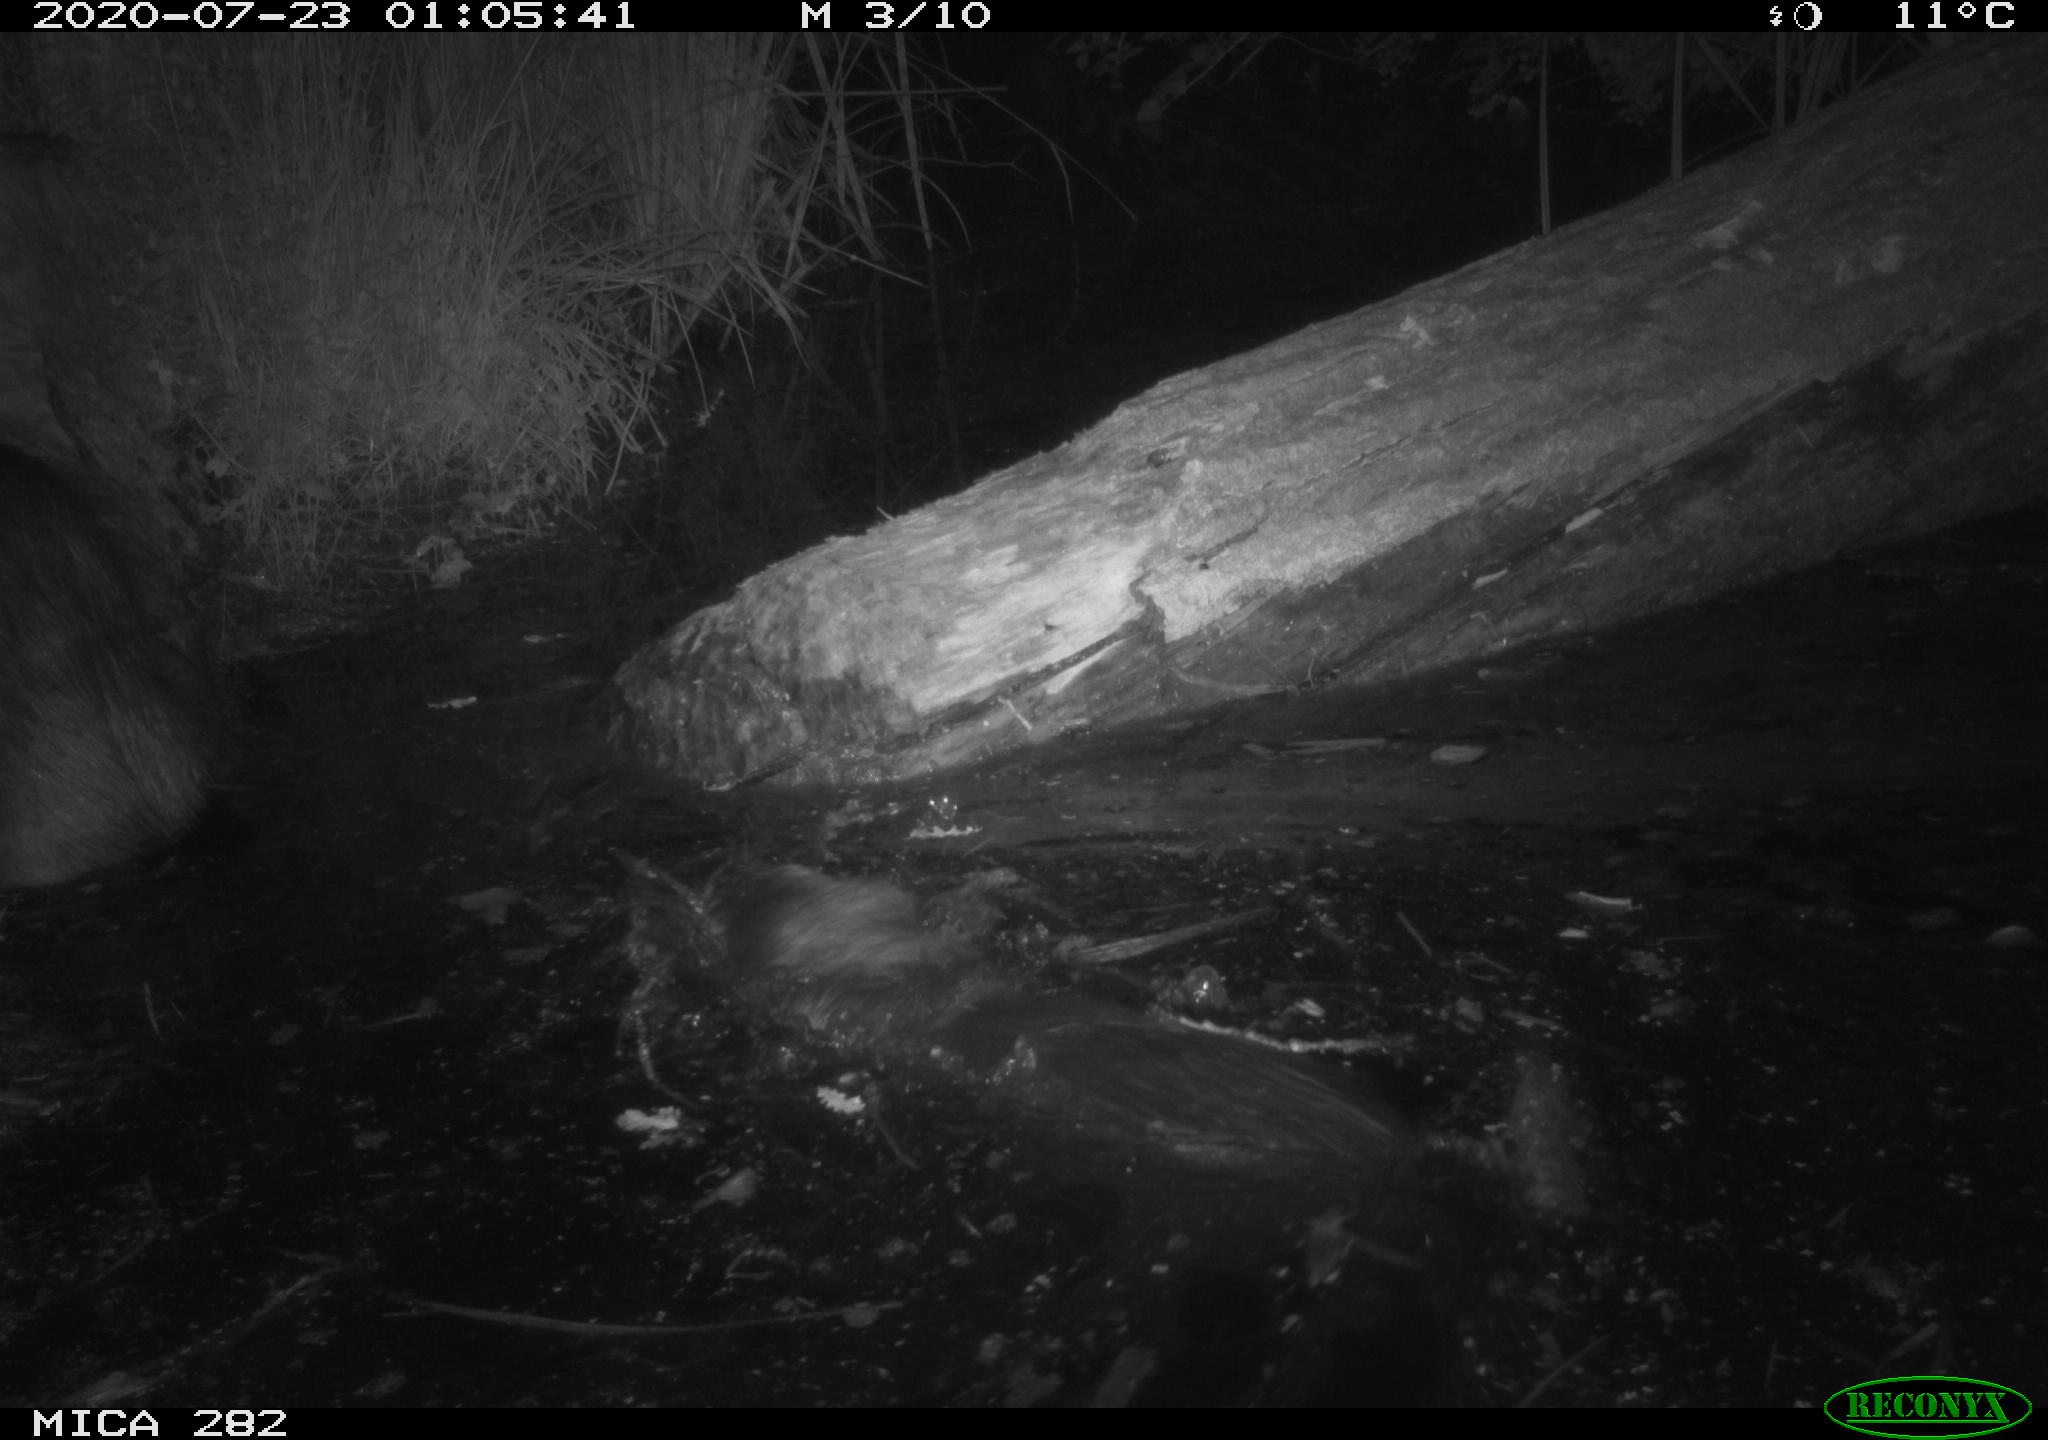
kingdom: Animalia
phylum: Chordata
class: Mammalia
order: Rodentia
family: Castoridae
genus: Castor
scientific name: Castor fiber
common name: Eurasian beaver
